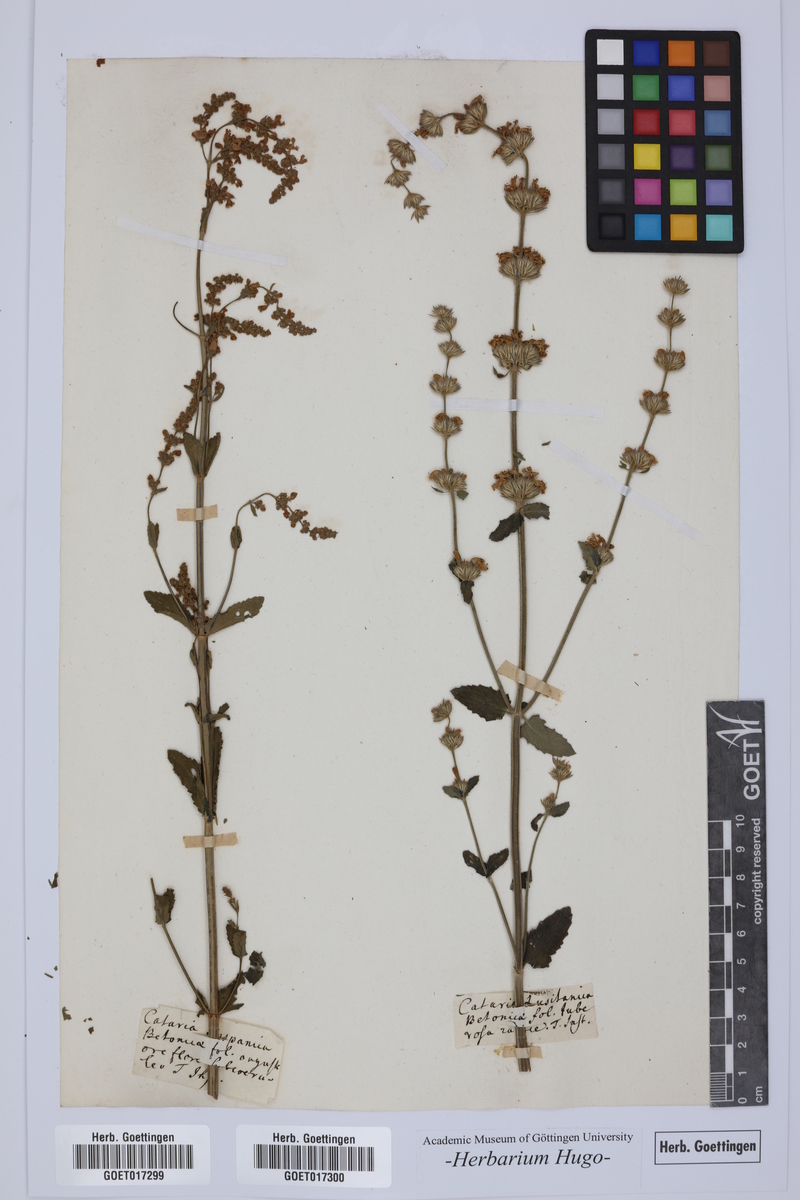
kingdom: Plantae
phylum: Tracheophyta
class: Magnoliopsida
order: Lamiales
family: Lamiaceae
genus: Nepeta
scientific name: Nepeta nuda
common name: Hairless catmint
